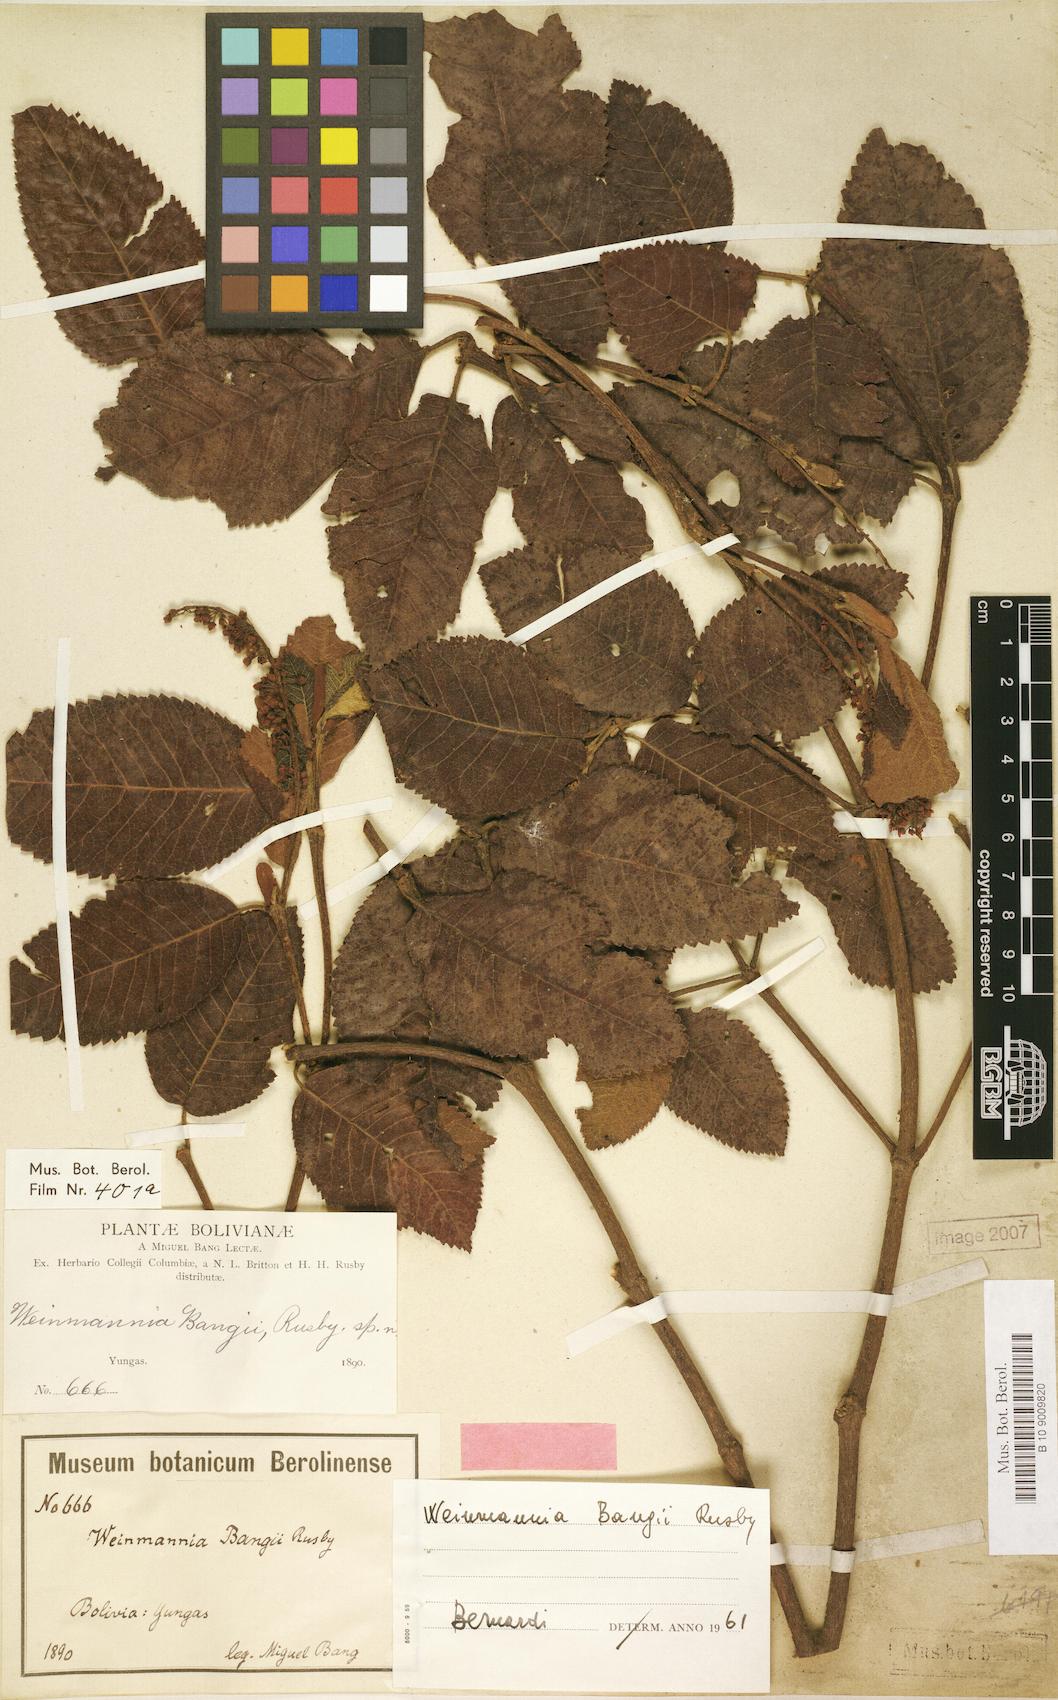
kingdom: Plantae
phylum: Tracheophyta
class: Magnoliopsida
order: Oxalidales
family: Cunoniaceae
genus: Weinmannia
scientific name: Weinmannia bangii
